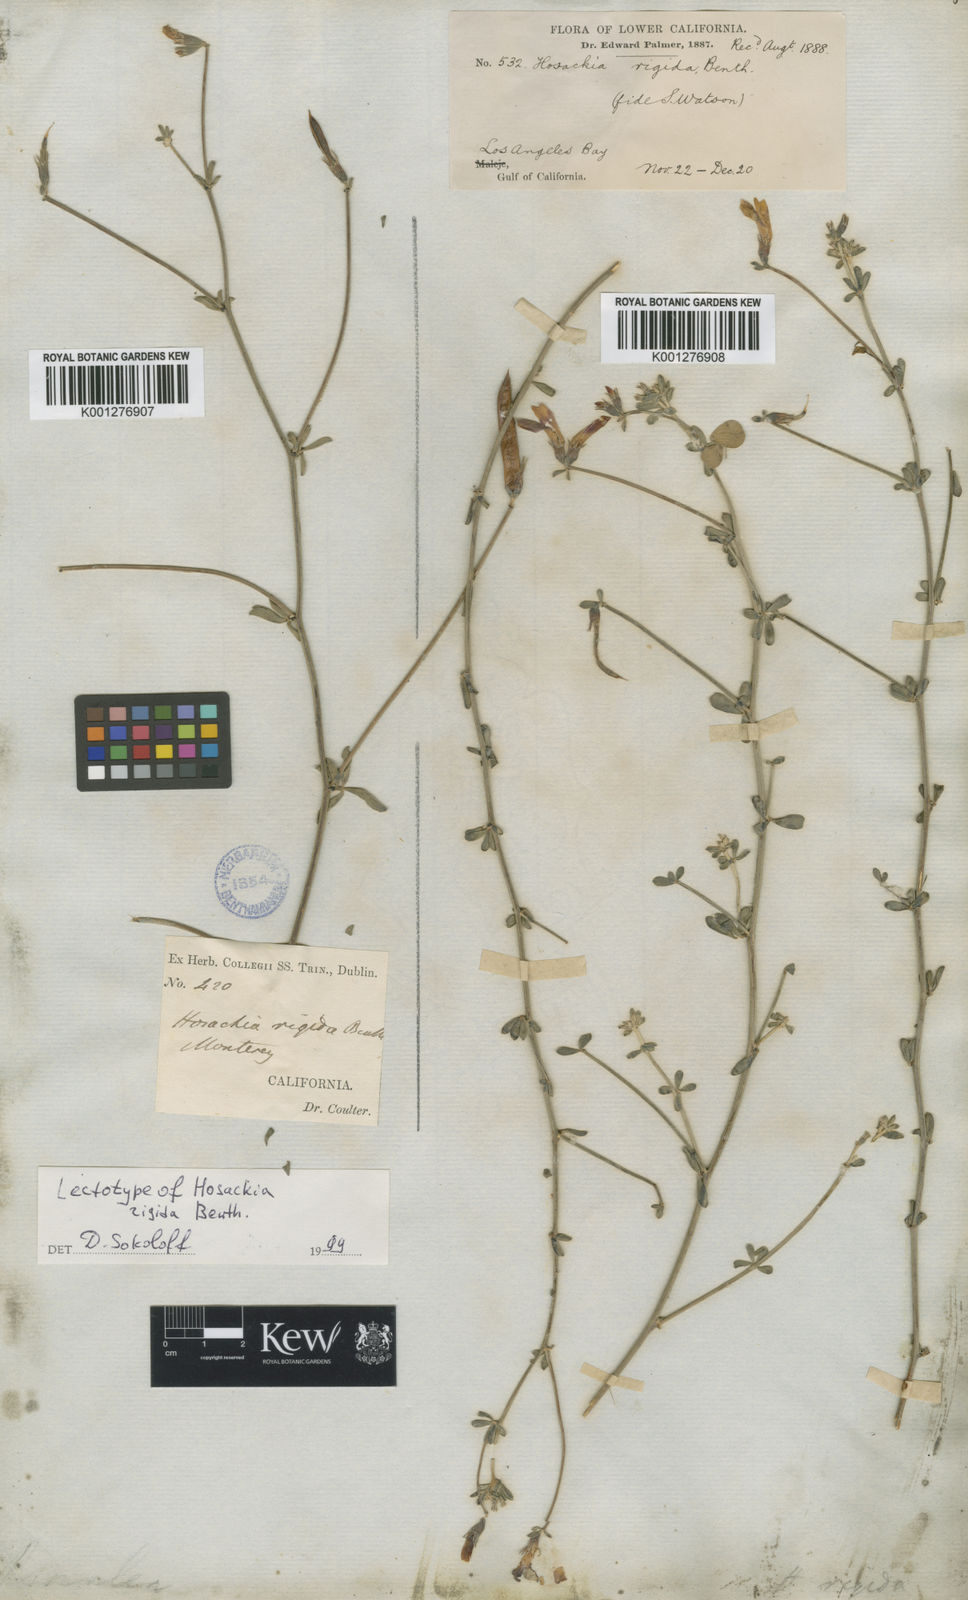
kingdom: Plantae
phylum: Tracheophyta
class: Magnoliopsida
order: Fabales
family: Fabaceae
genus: Acmispon
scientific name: Acmispon rigidus
